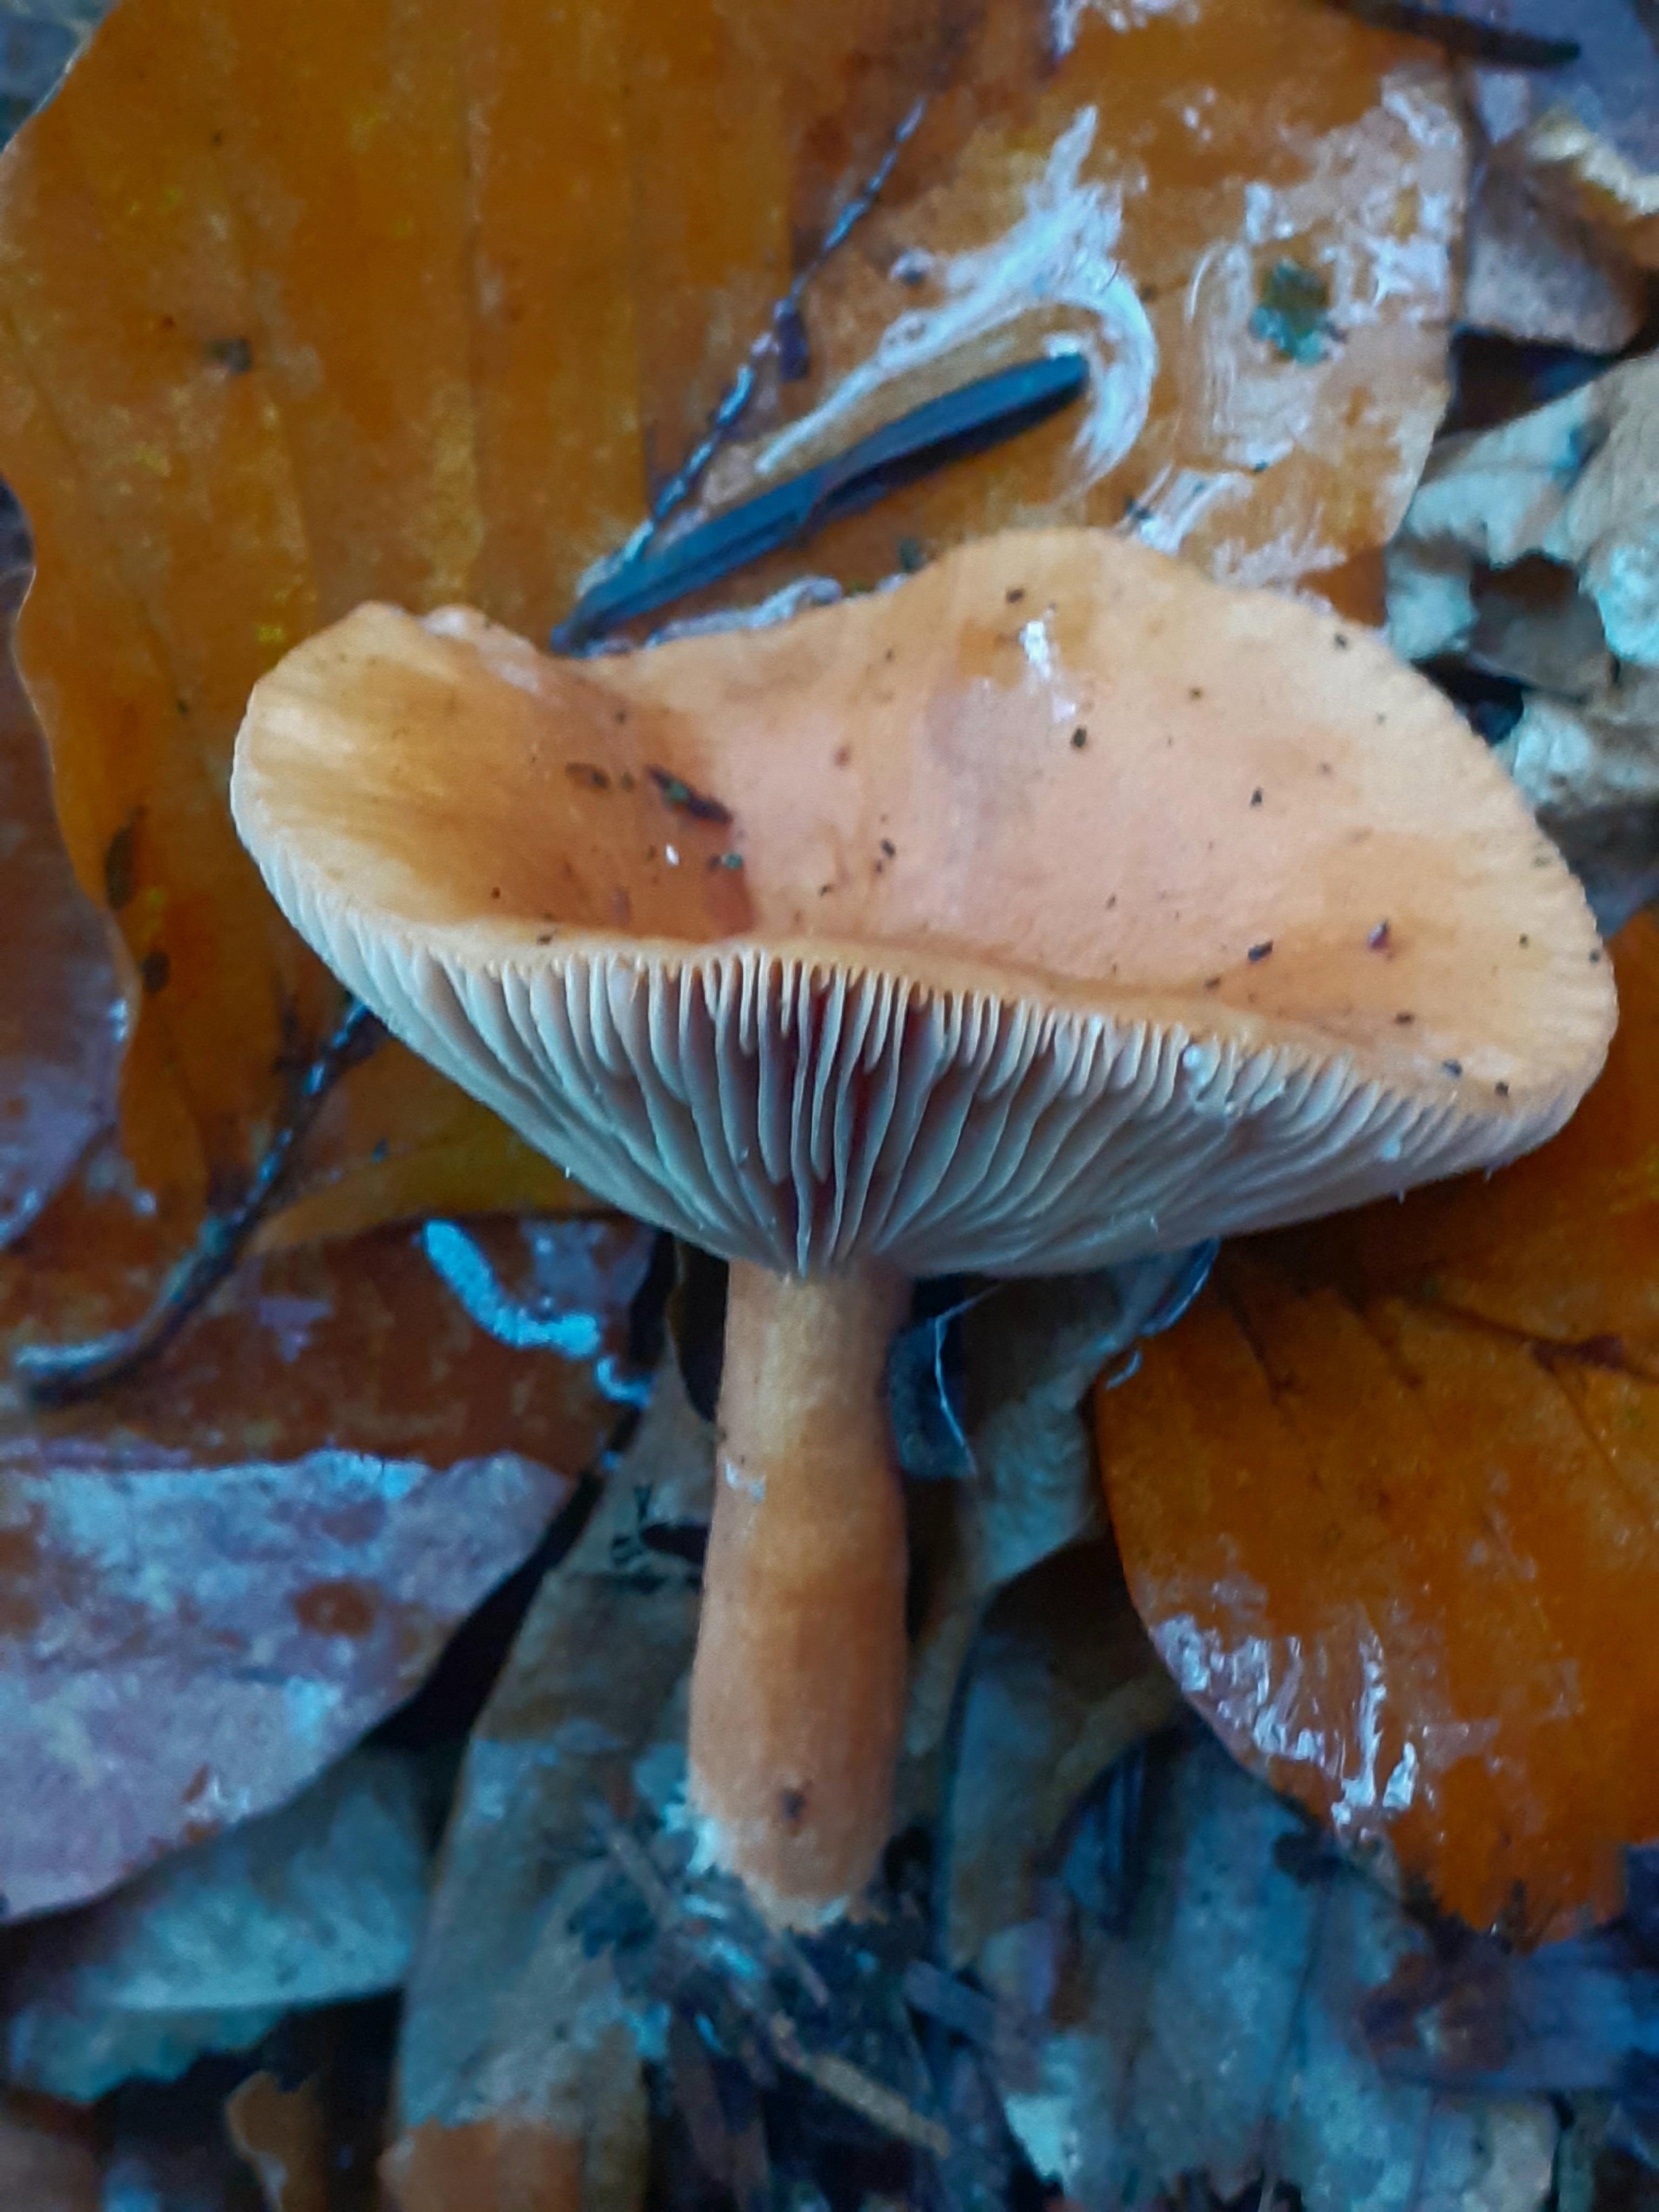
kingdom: Fungi
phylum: Basidiomycota
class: Agaricomycetes
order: Russulales
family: Russulaceae
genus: Lactarius
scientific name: Lactarius aurantiacus
